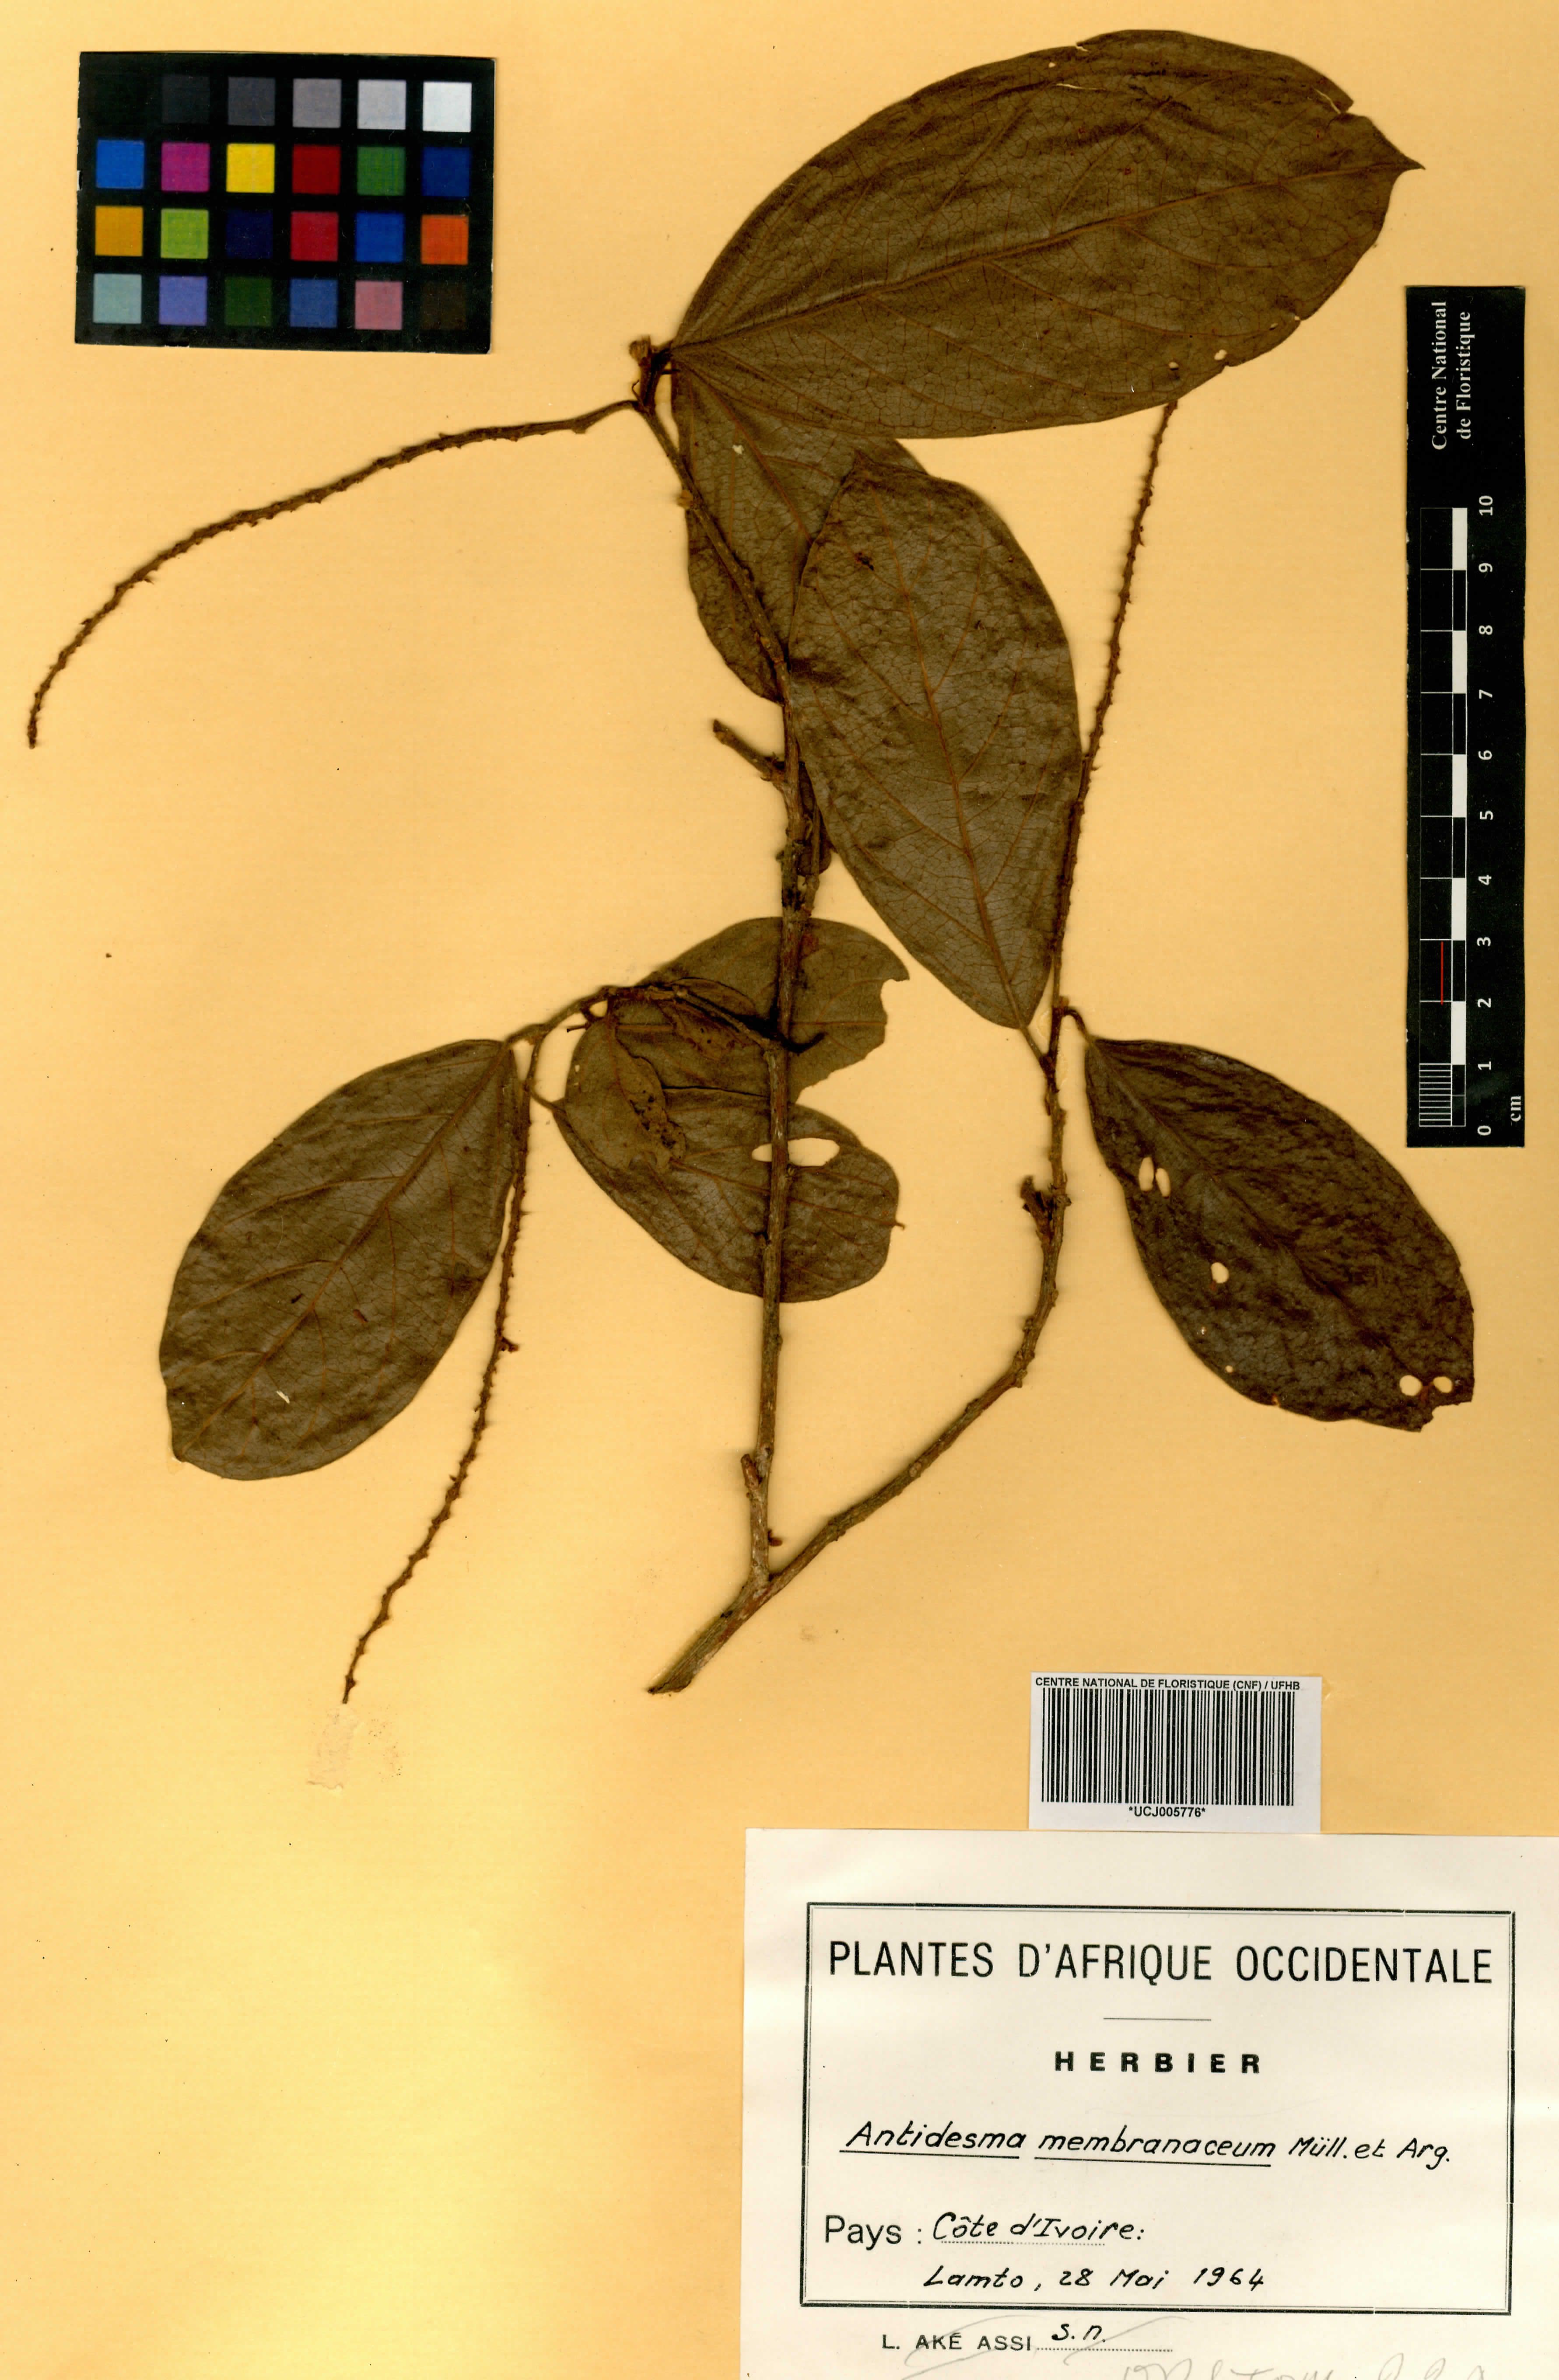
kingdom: Plantae
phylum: Tracheophyta
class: Magnoliopsida
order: Malpighiales
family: Phyllanthaceae
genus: Antidesma
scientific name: Antidesma membranaceum
